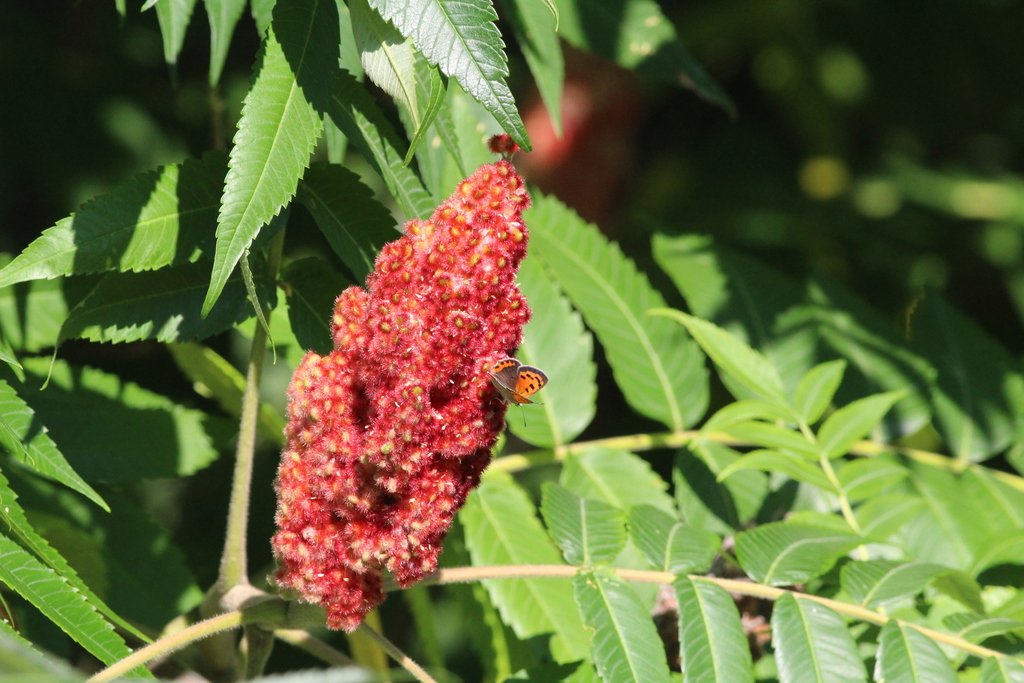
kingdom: Animalia
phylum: Arthropoda
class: Insecta
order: Lepidoptera
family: Lycaenidae
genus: Lycaena
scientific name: Lycaena phlaeas
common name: American Copper
